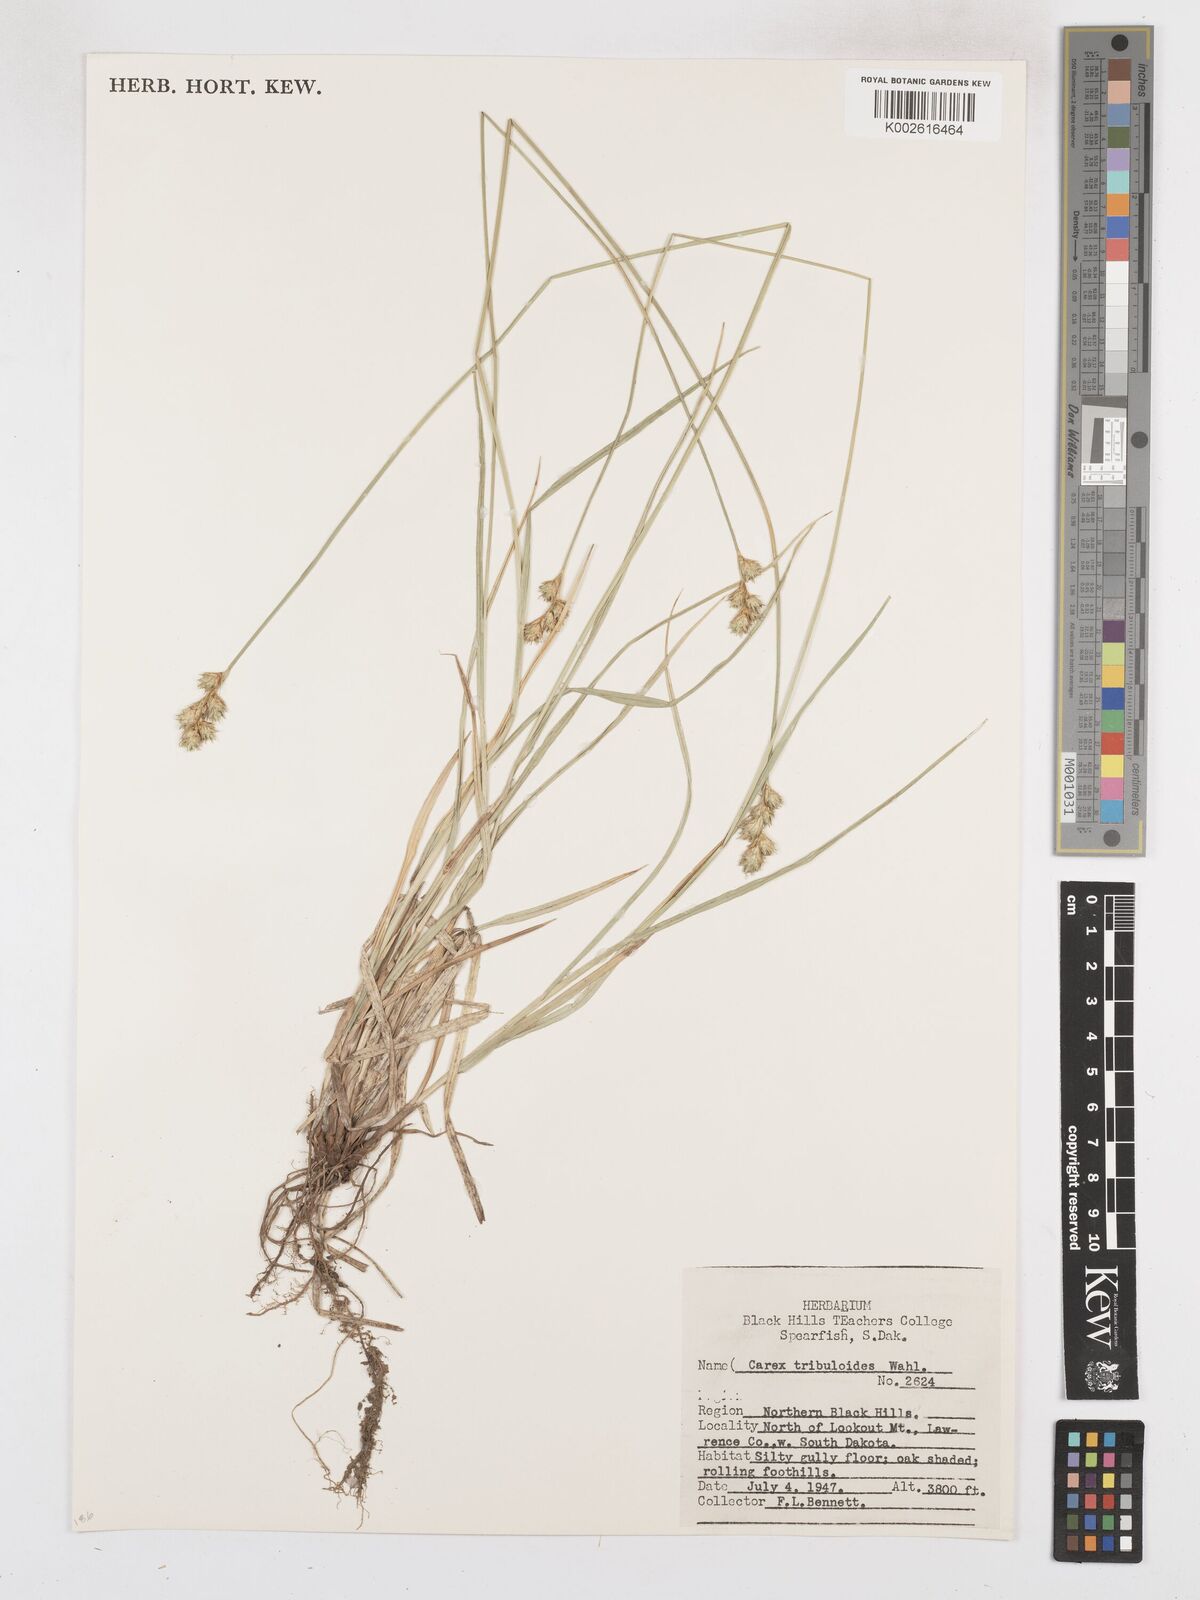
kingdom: Plantae
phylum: Tracheophyta
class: Liliopsida
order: Poales
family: Cyperaceae
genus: Carex
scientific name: Carex tribuloides
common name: Blunt broom sedge
